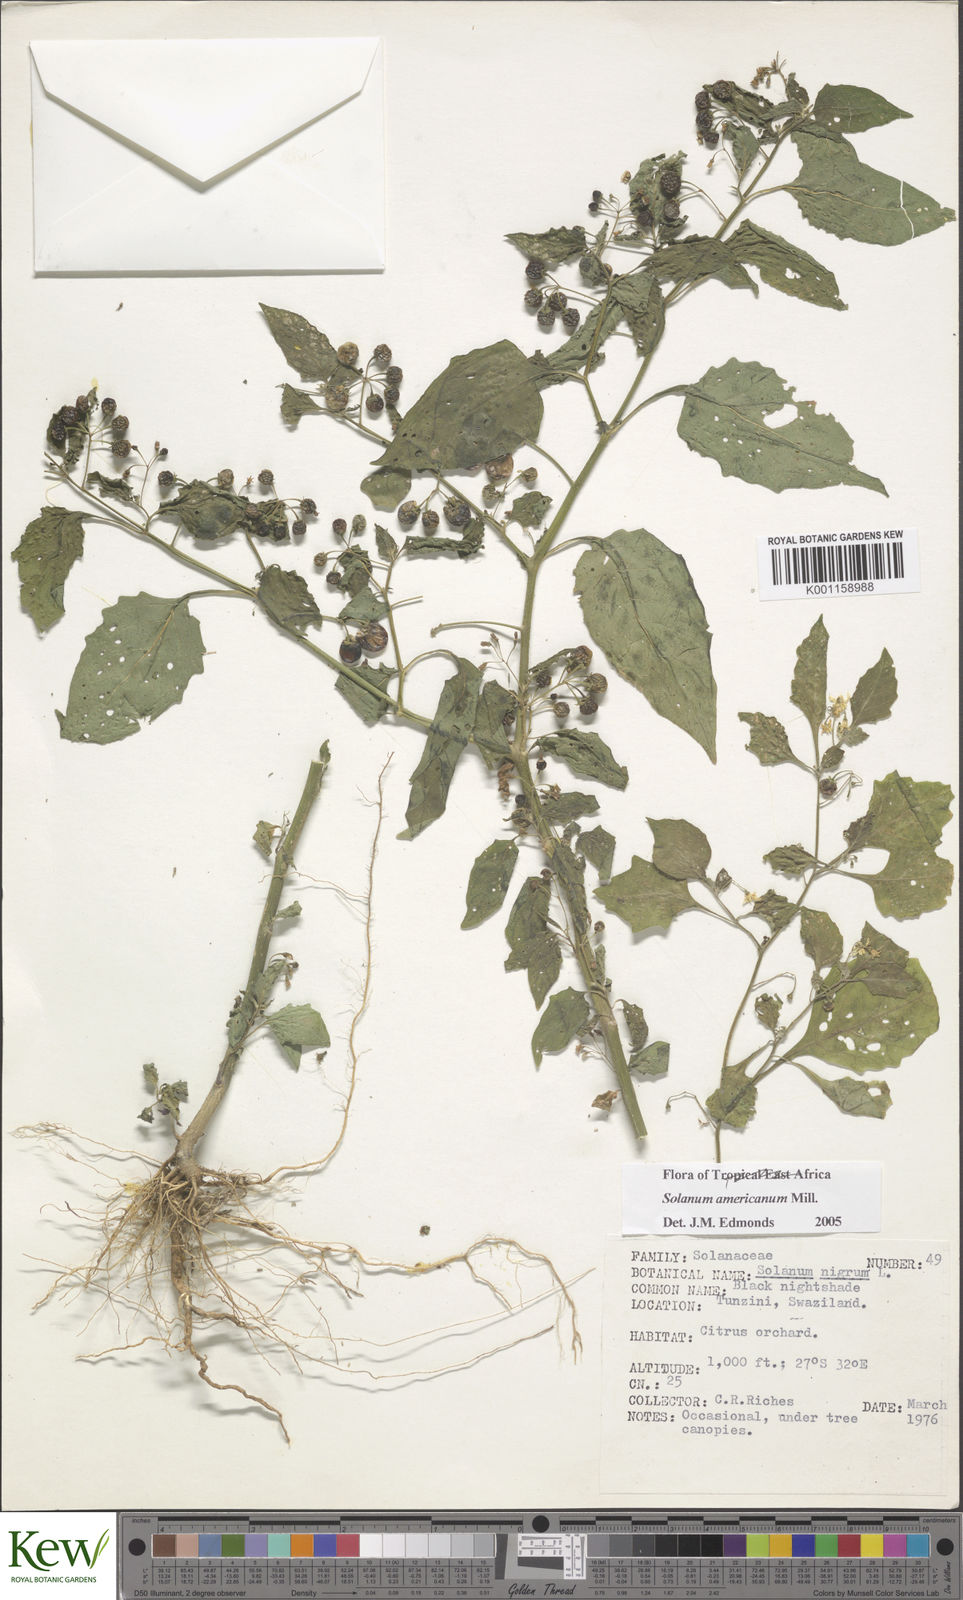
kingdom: Plantae
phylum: Tracheophyta
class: Magnoliopsida
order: Solanales
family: Solanaceae
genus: Solanum
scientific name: Solanum americanum
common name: American black nightshade
